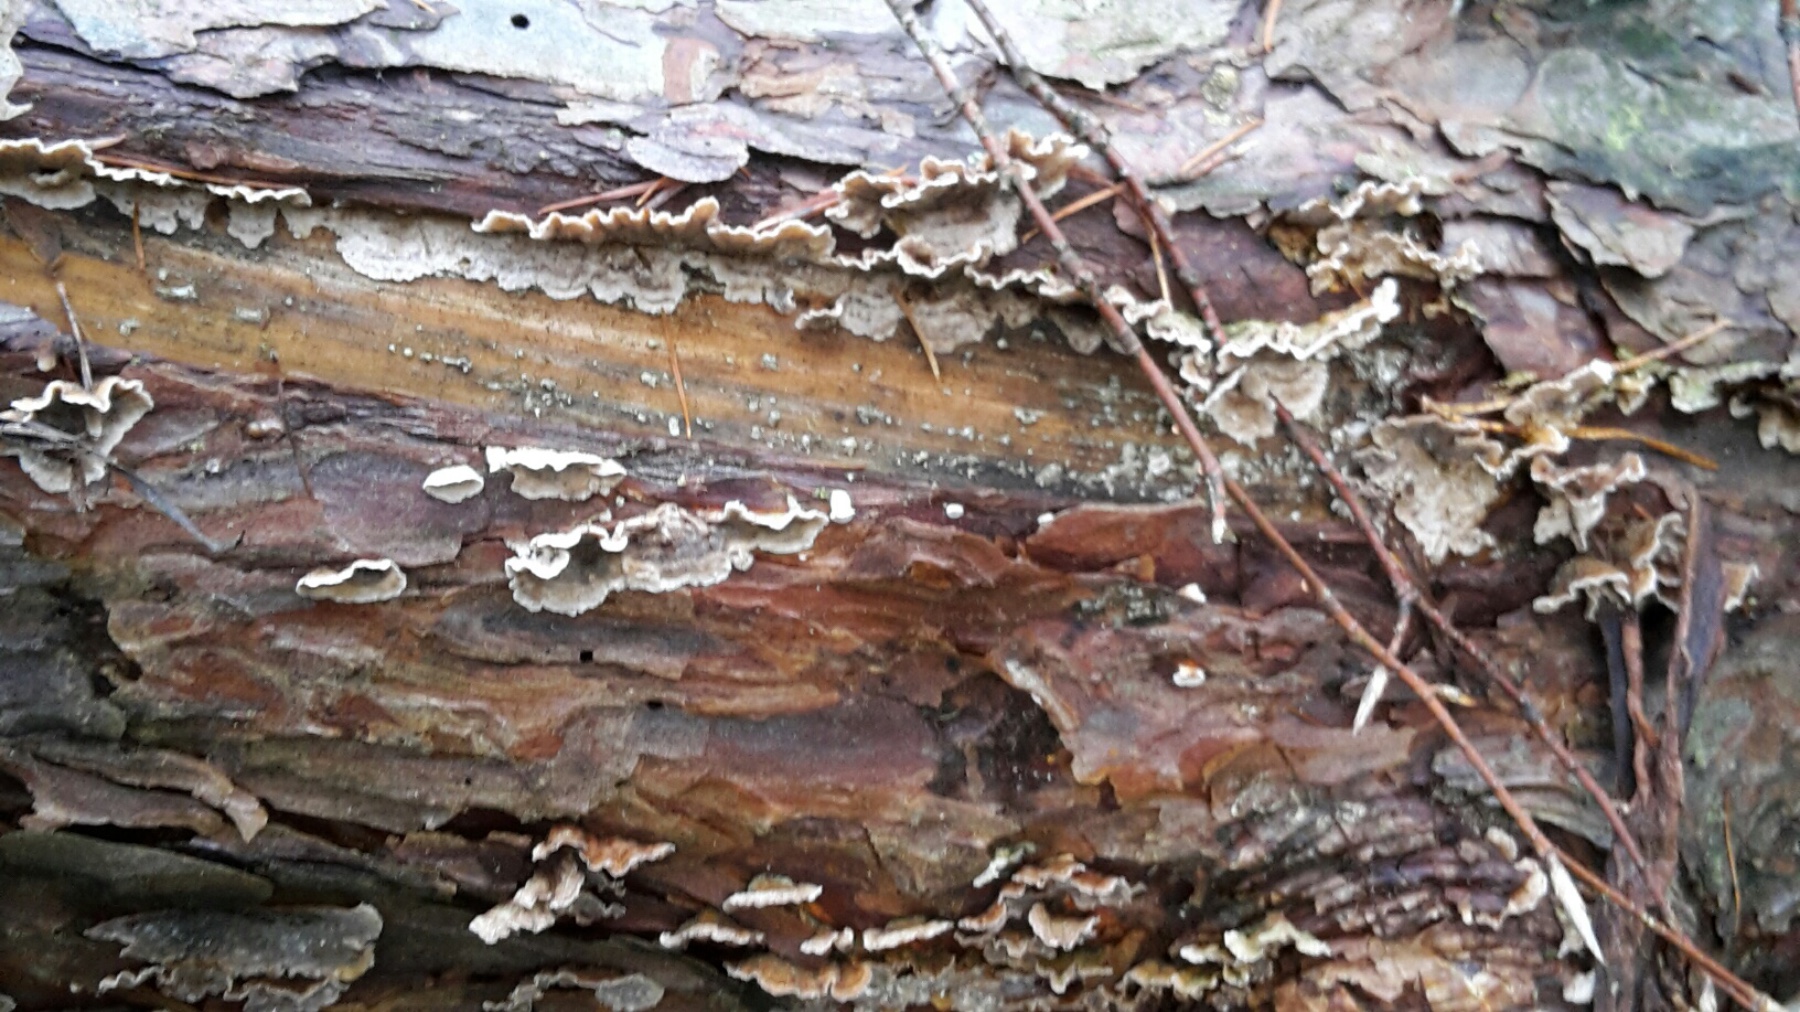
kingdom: Fungi
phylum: Basidiomycota
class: Agaricomycetes
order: Russulales
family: Stereaceae
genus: Stereum
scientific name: Stereum sanguinolentum
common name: blødende lædersvamp
